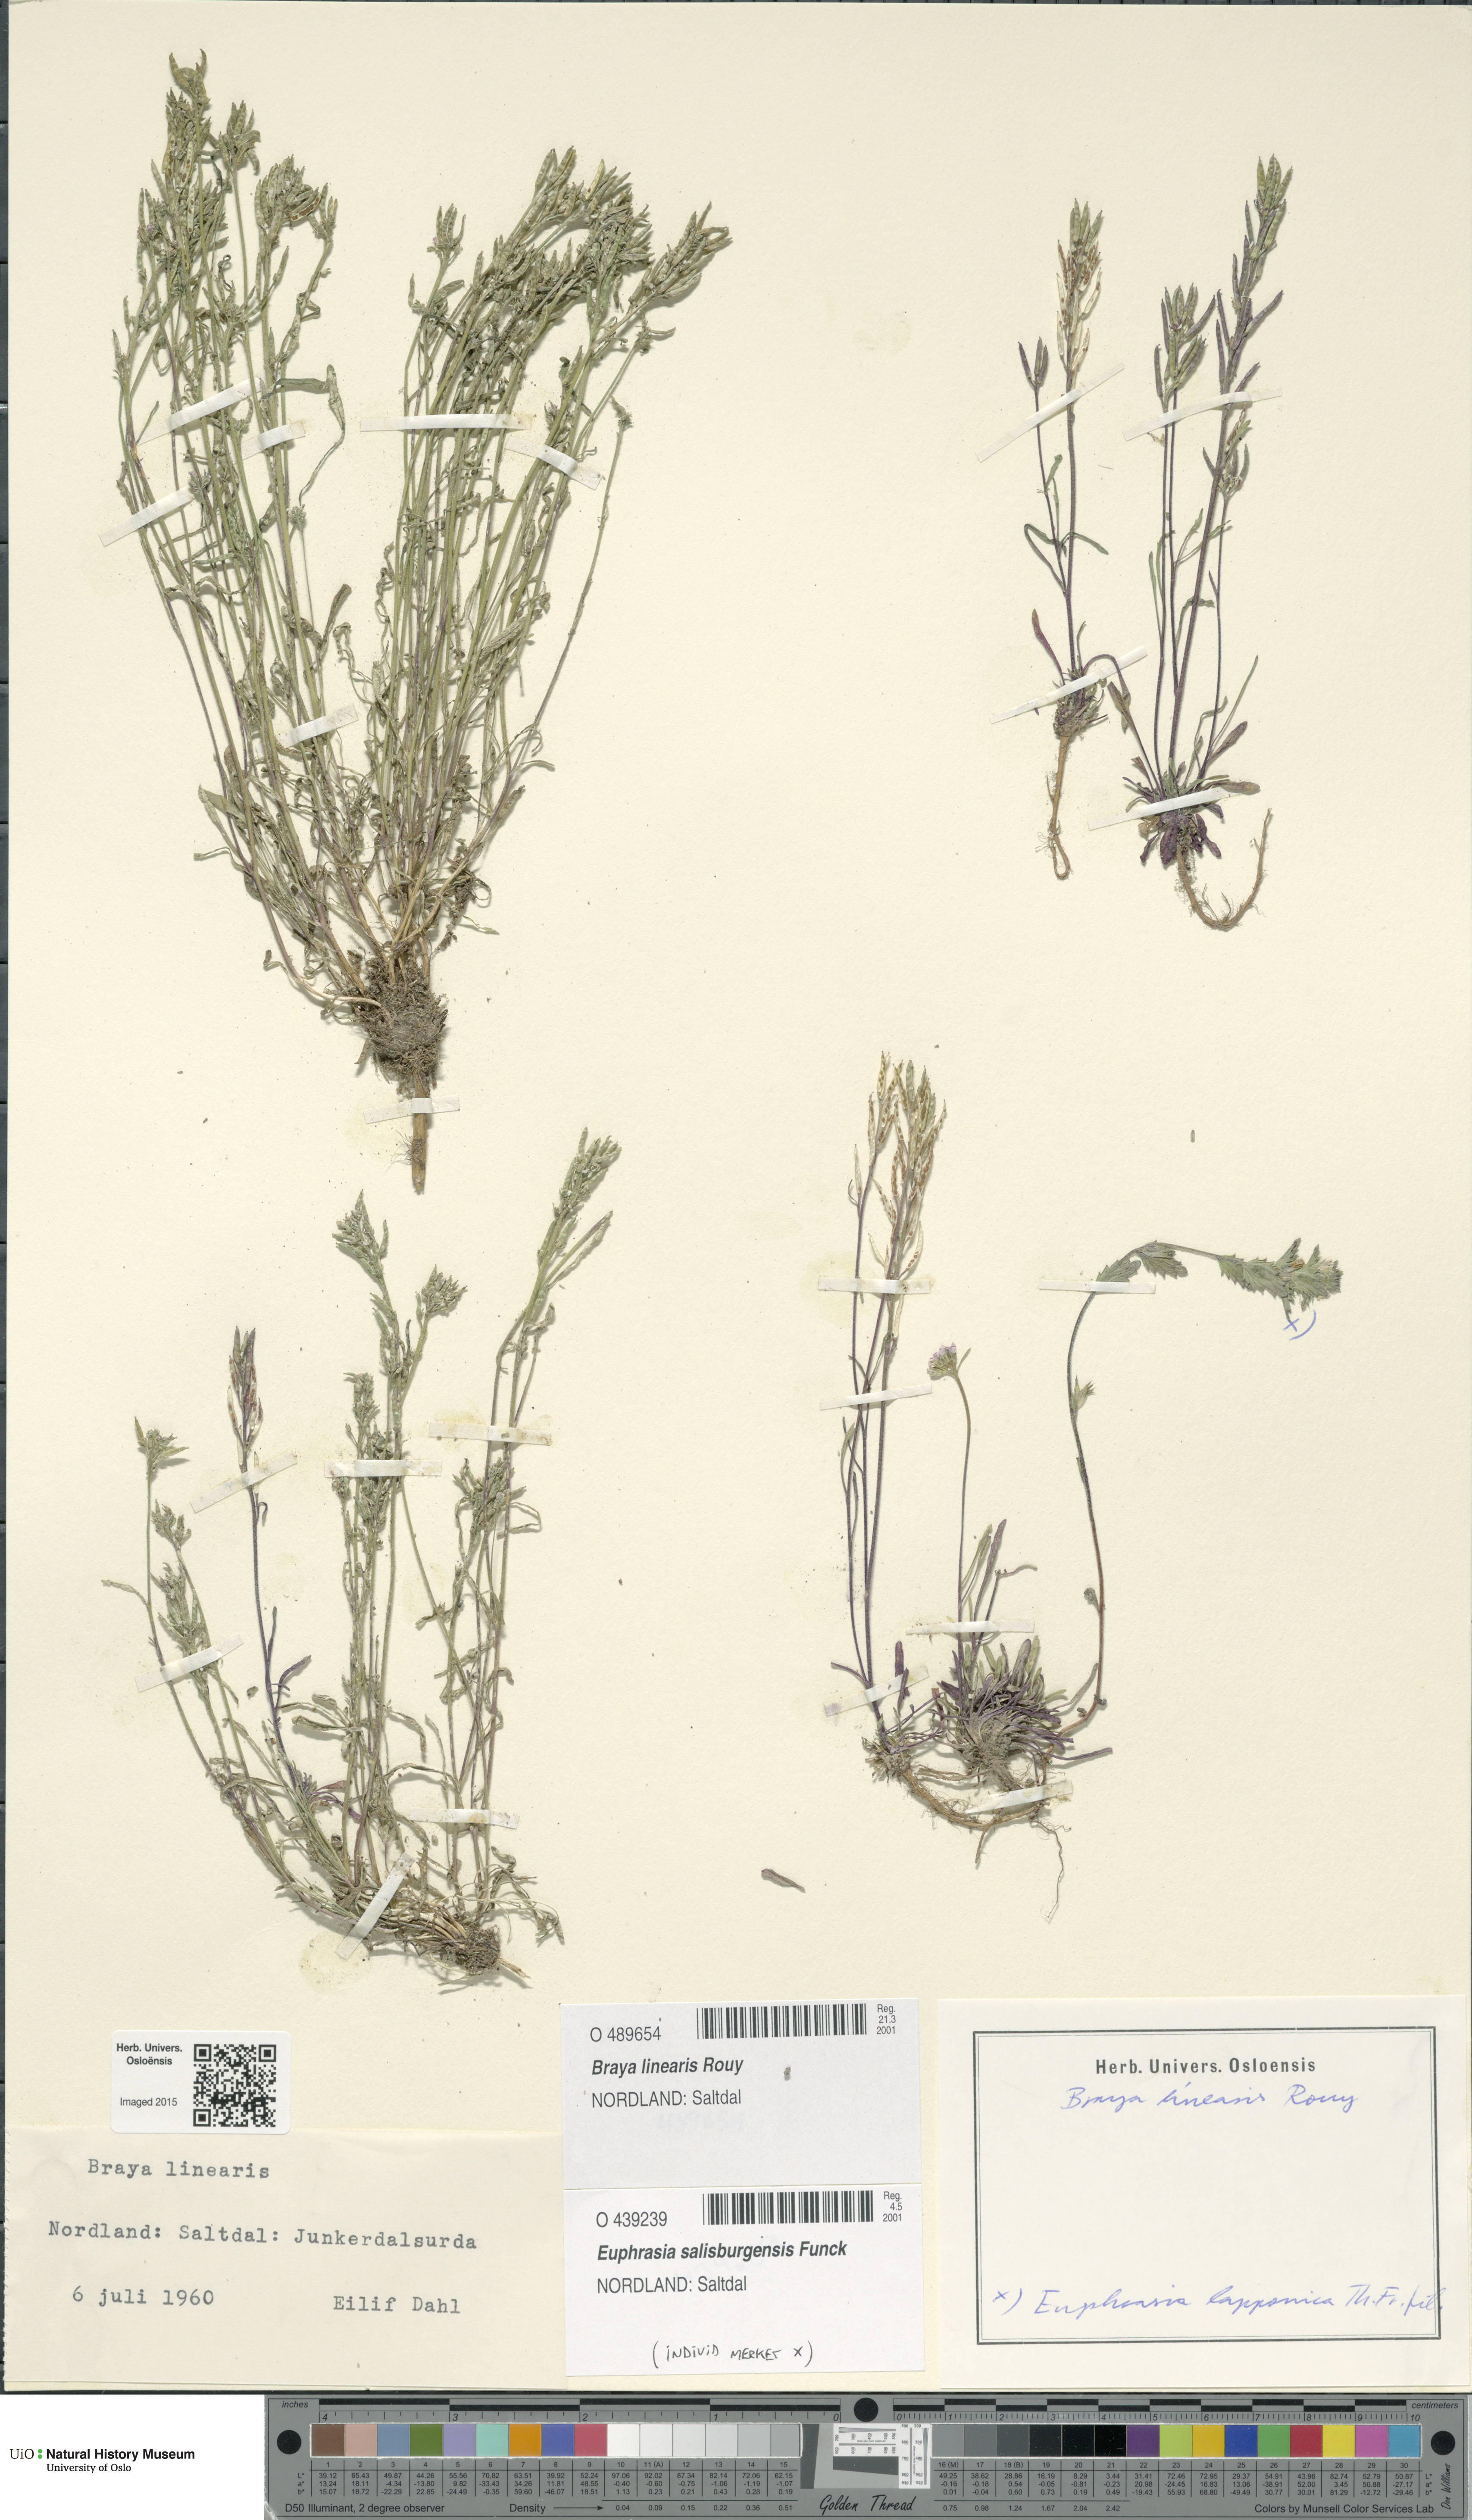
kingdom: Plantae
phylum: Tracheophyta
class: Magnoliopsida
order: Brassicales
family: Brassicaceae
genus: Braya
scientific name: Braya linearis
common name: Narrow-fruit braya
